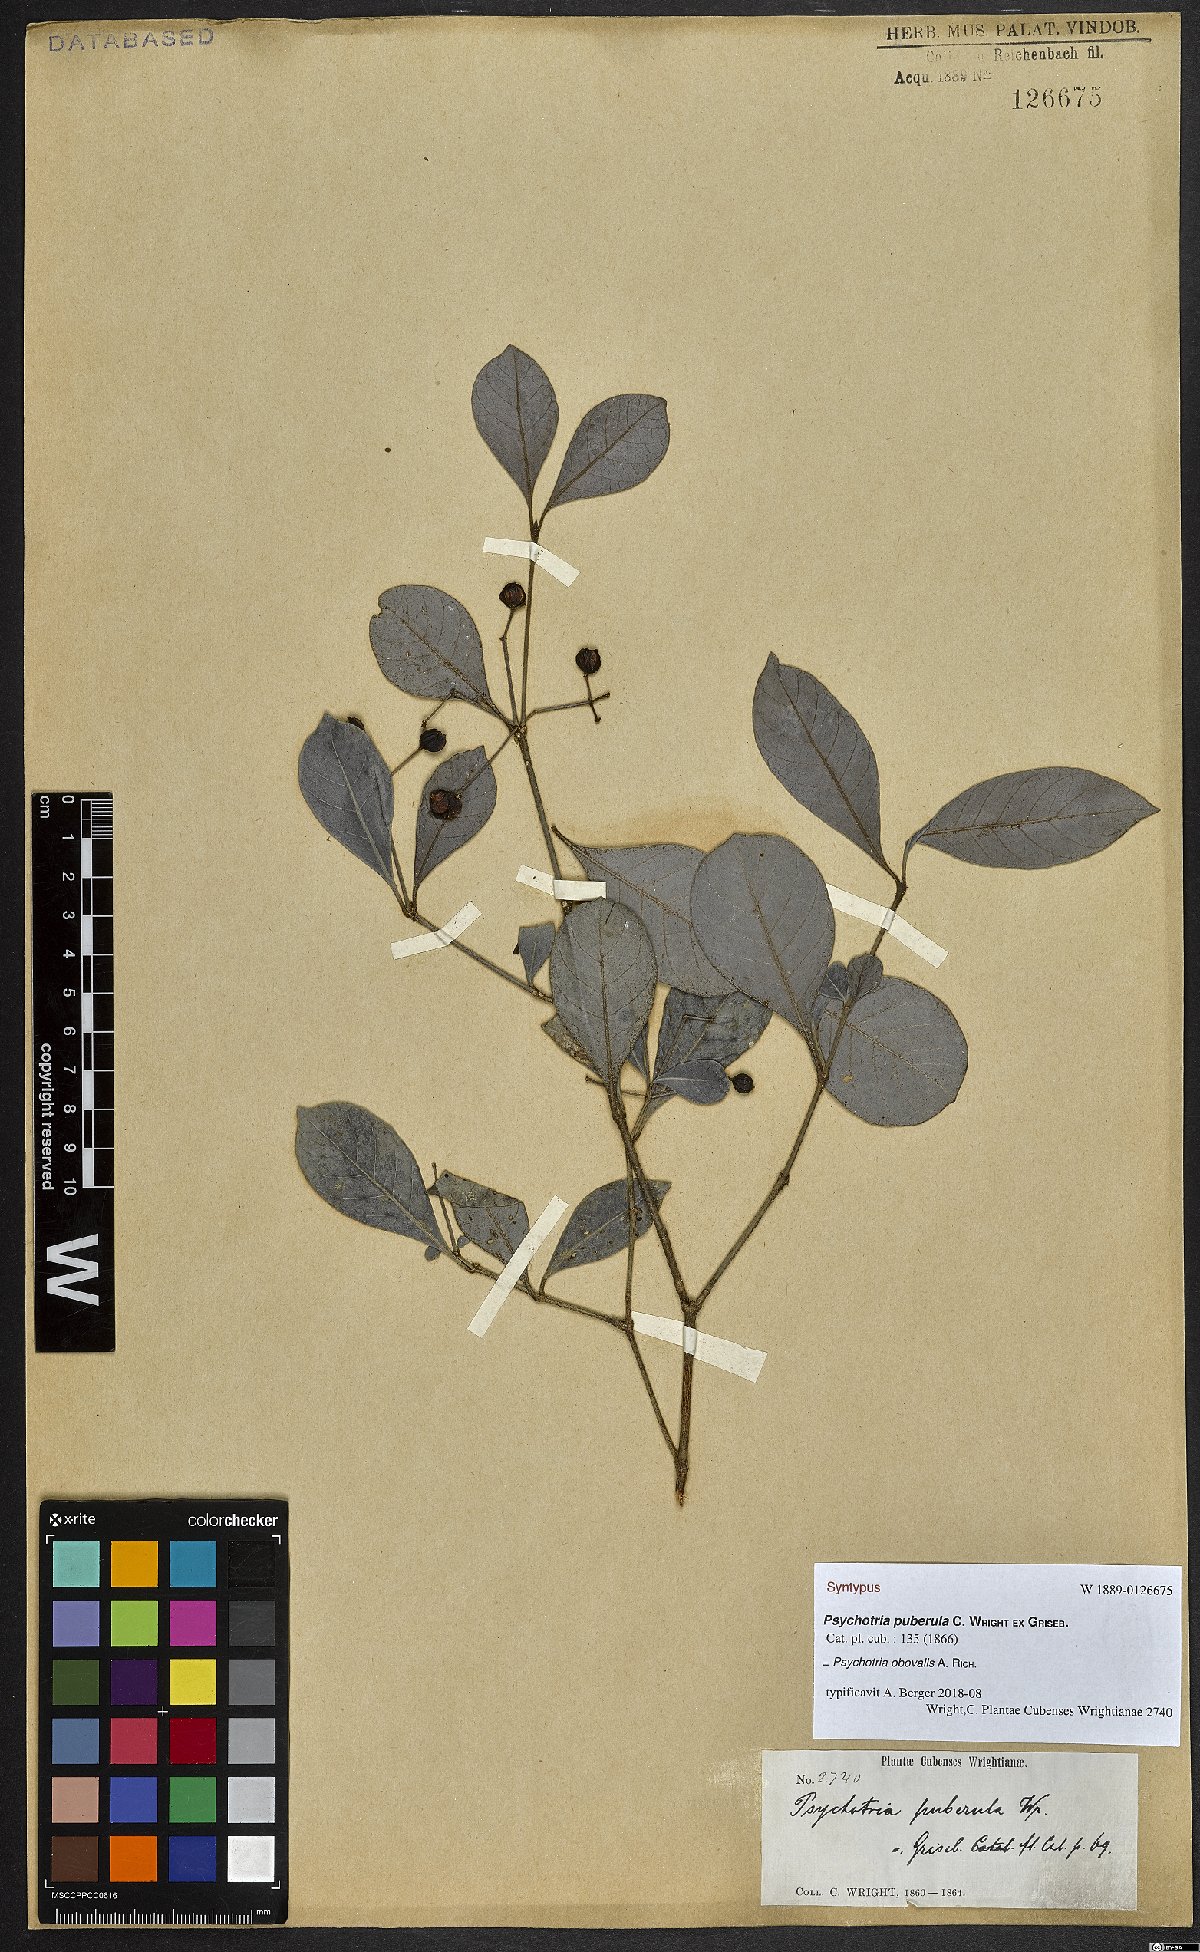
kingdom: Plantae
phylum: Tracheophyta
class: Magnoliopsida
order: Gentianales
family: Rubiaceae
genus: Psychotria
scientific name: Psychotria obovalis
